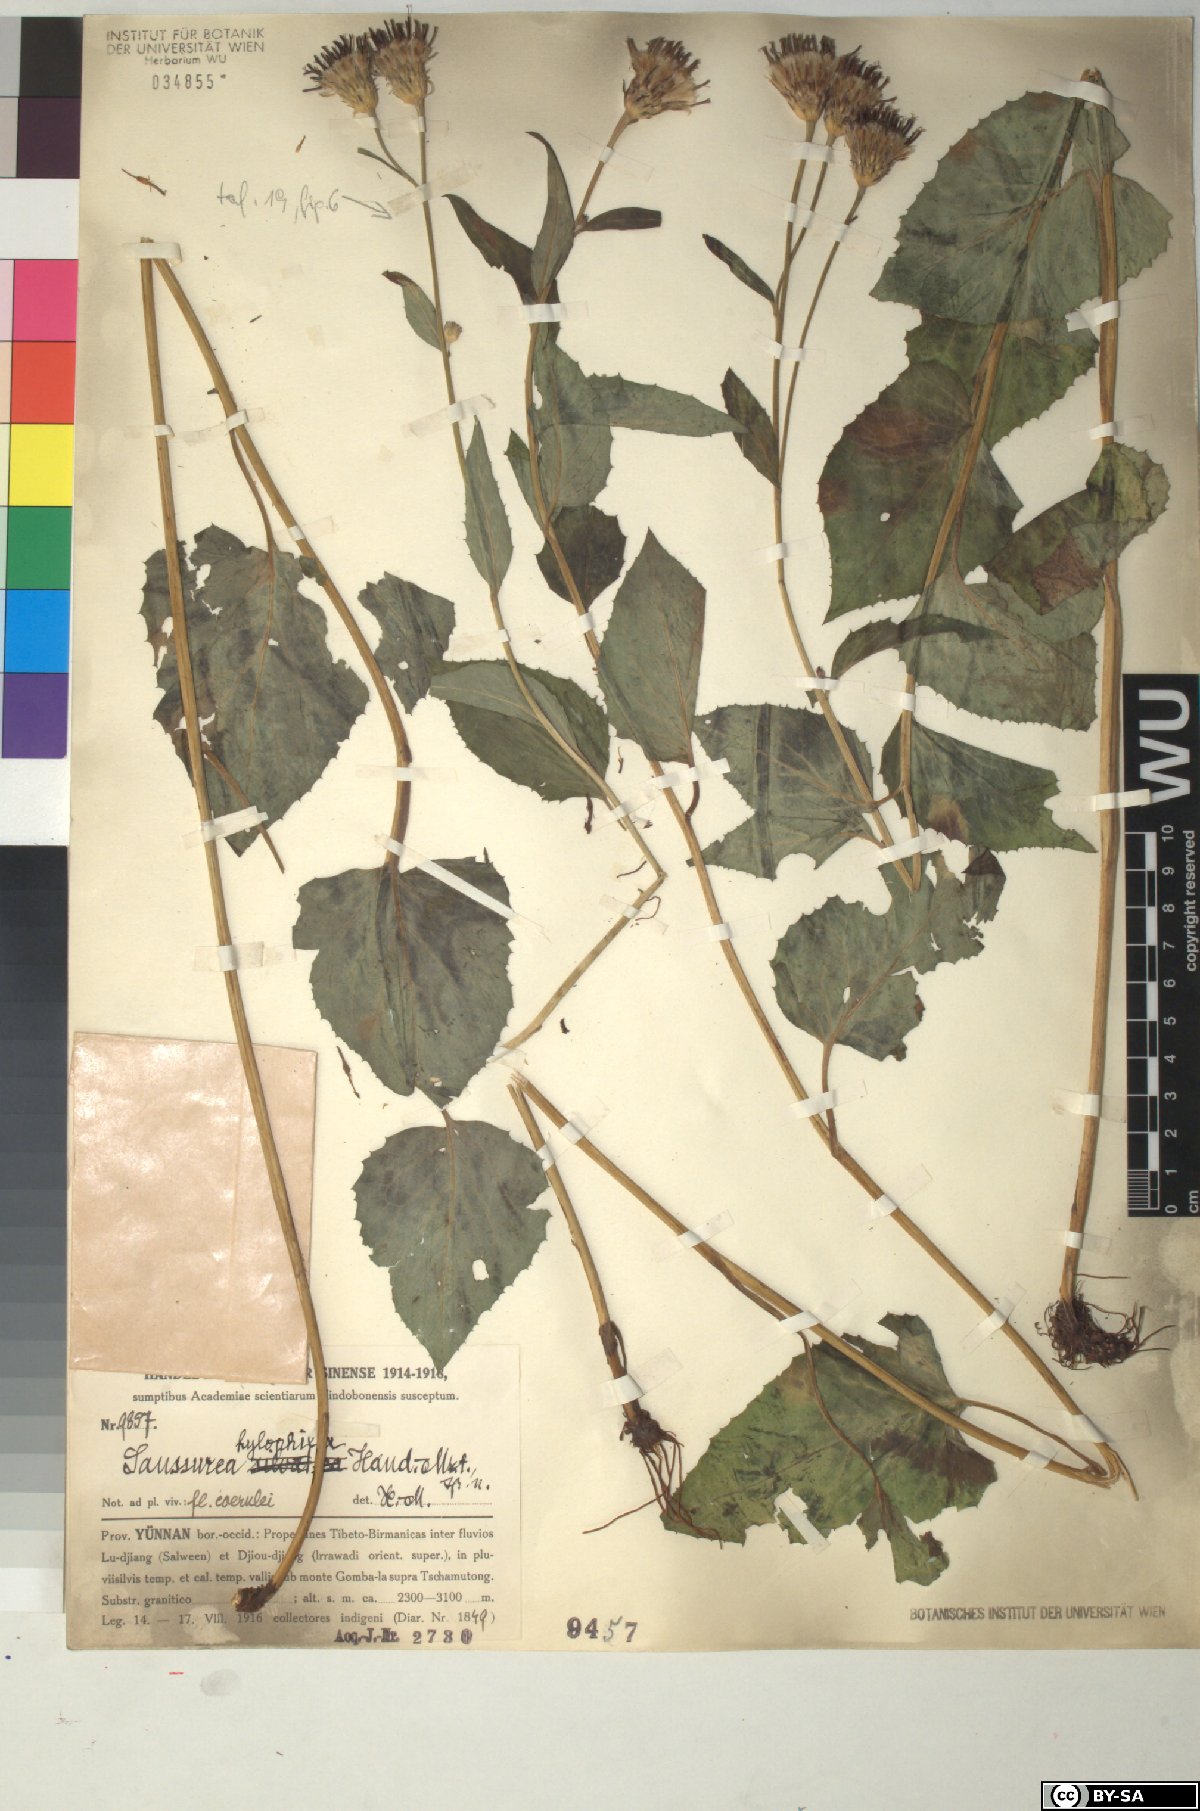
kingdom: Plantae
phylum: Tracheophyta
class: Magnoliopsida
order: Asterales
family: Asteraceae
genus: Saussurea
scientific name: Saussurea hylophila
